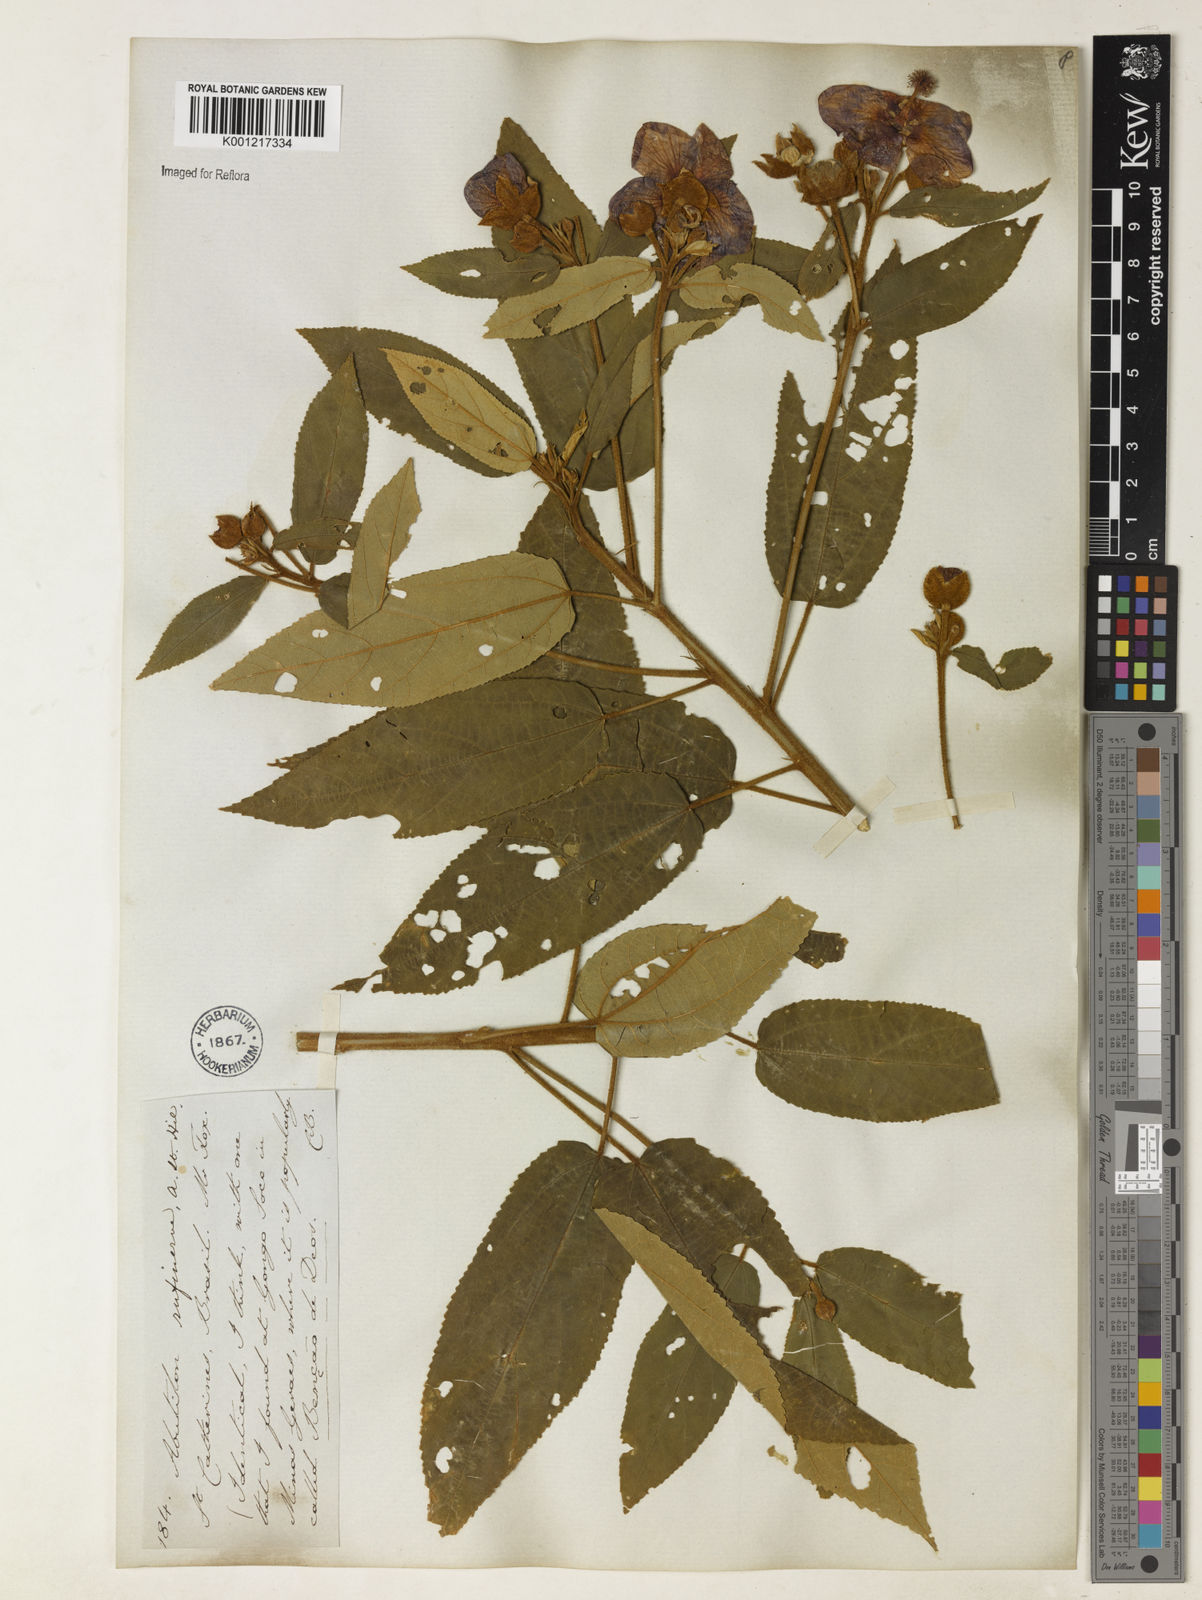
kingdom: Plantae
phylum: Tracheophyta
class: Magnoliopsida
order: Malvales
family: Malvaceae
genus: Callianthe
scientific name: Callianthe rufinerva
